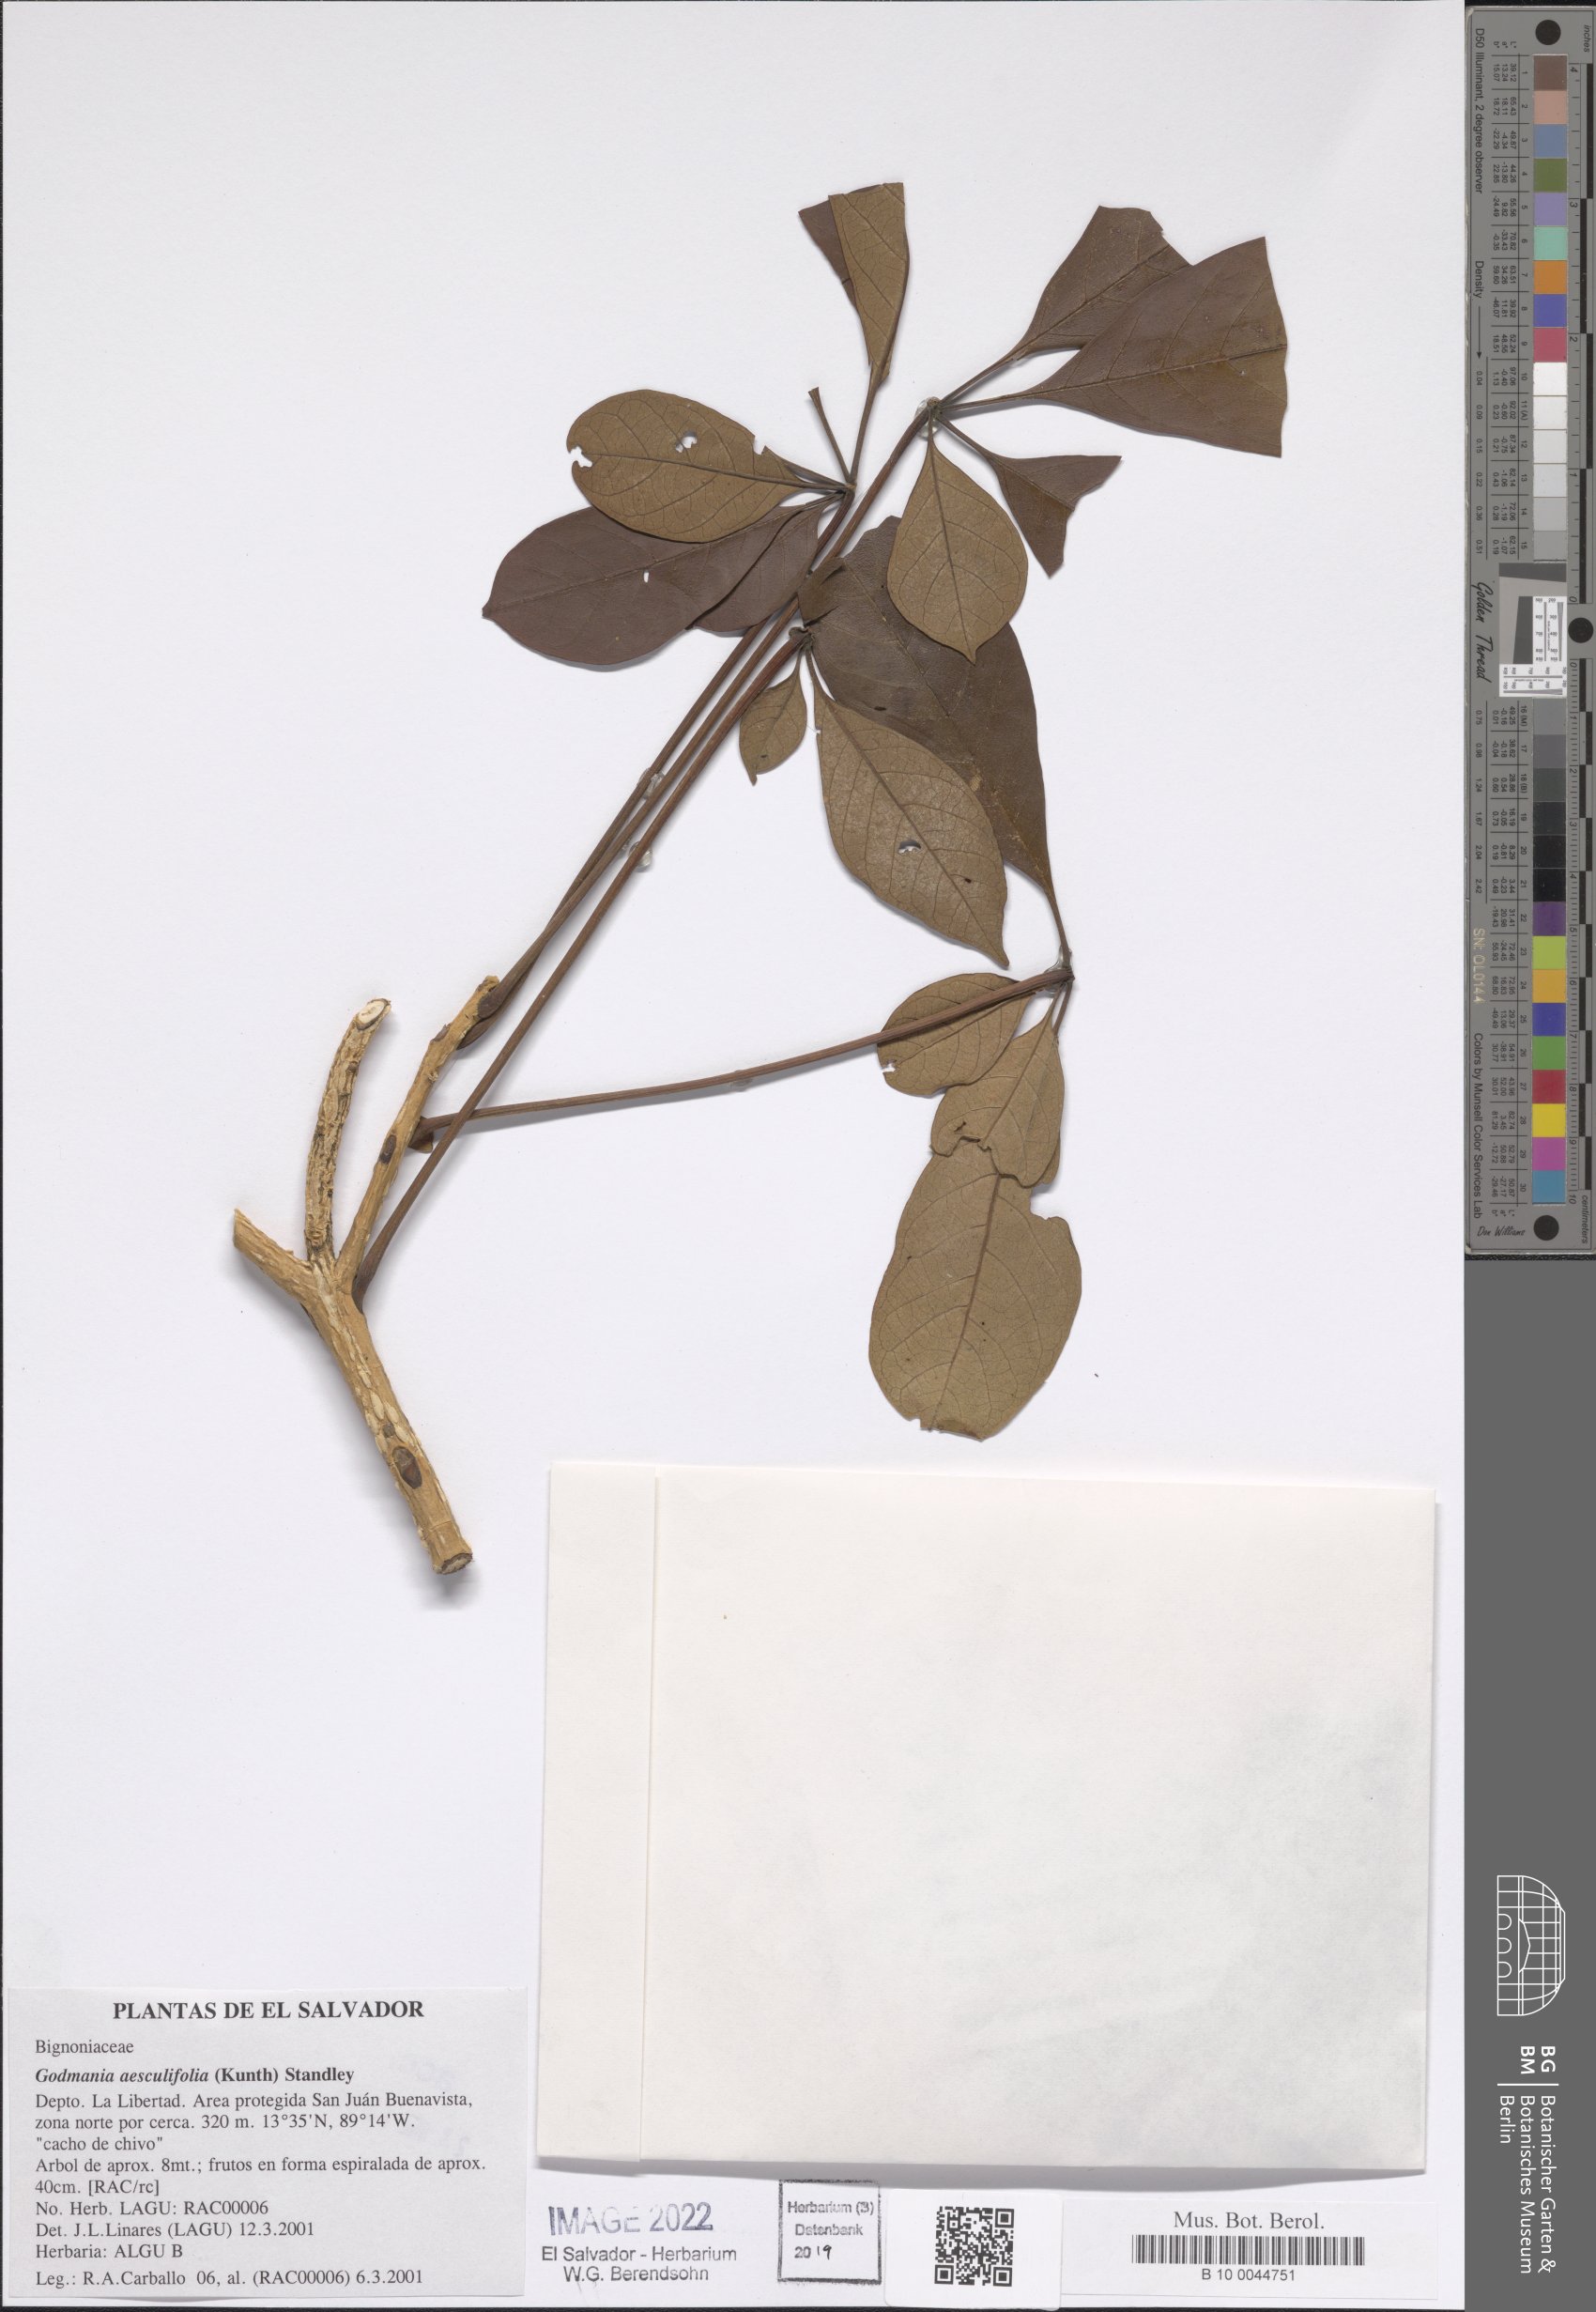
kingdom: Plantae
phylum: Tracheophyta
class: Magnoliopsida
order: Lamiales
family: Bignoniaceae
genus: Godmania
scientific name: Godmania aesculifolia
